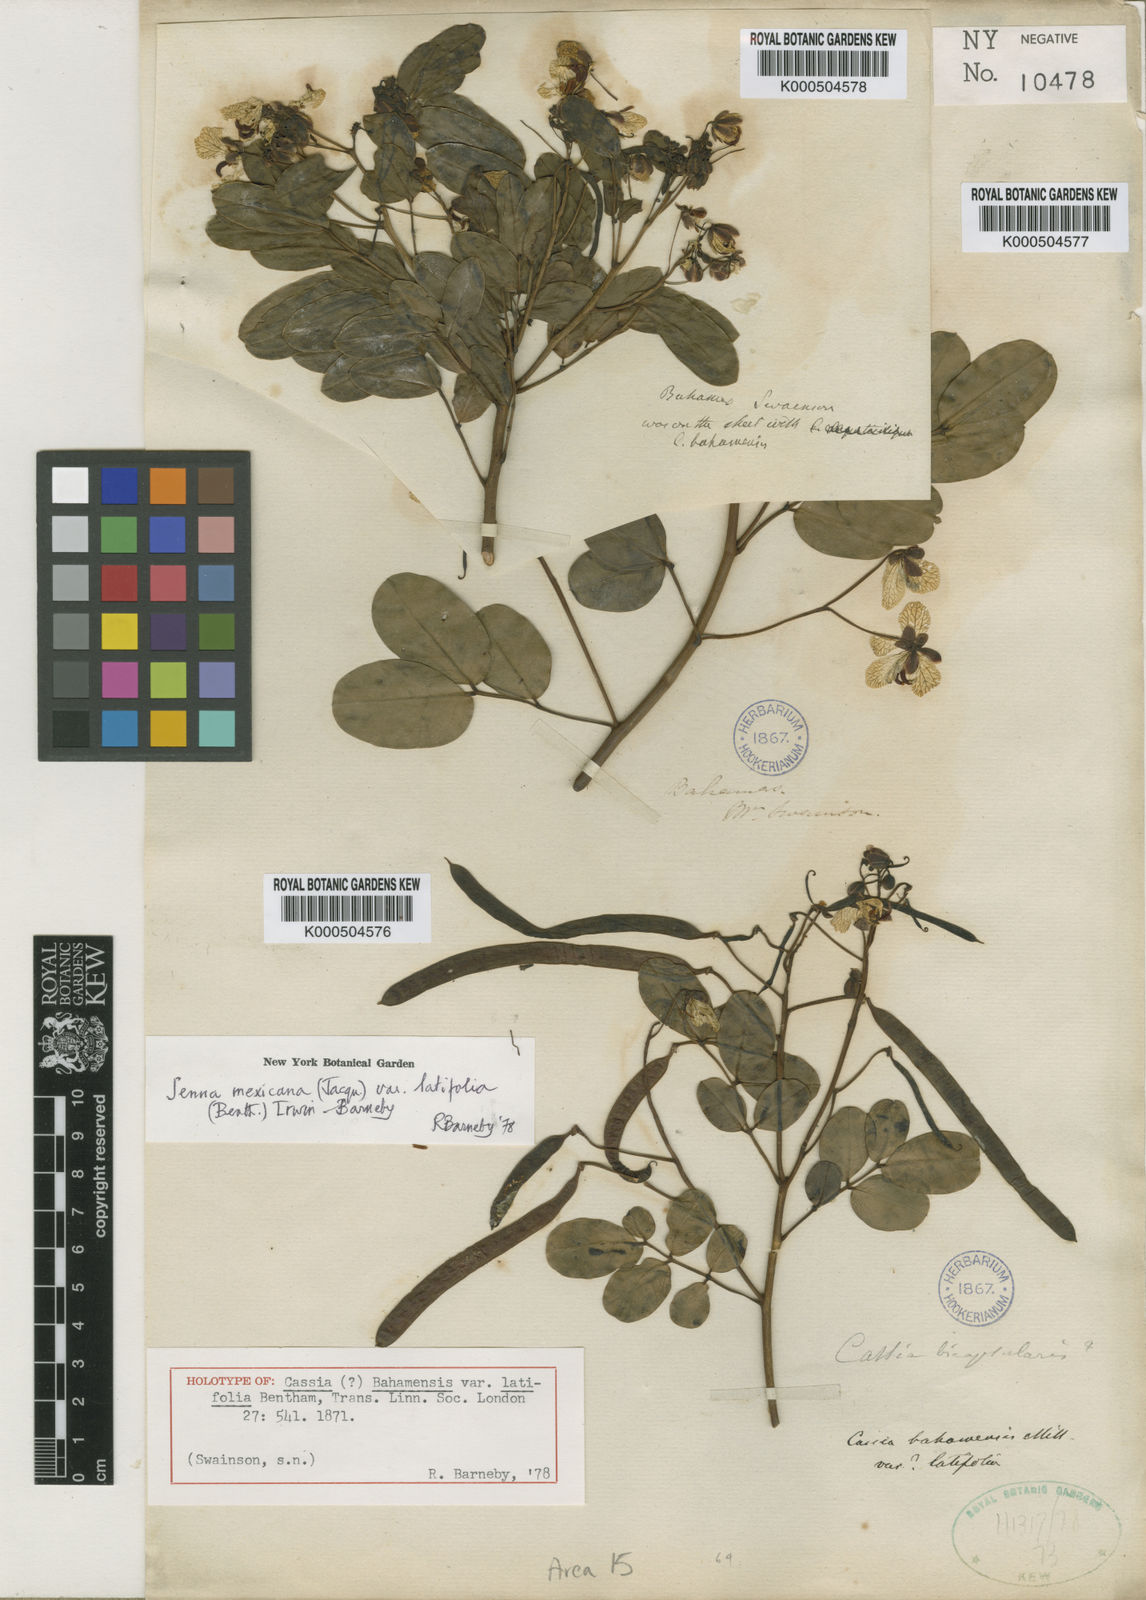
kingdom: Plantae
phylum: Tracheophyta
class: Magnoliopsida
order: Fabales
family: Fabaceae
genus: Senna
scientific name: Senna mexicana
